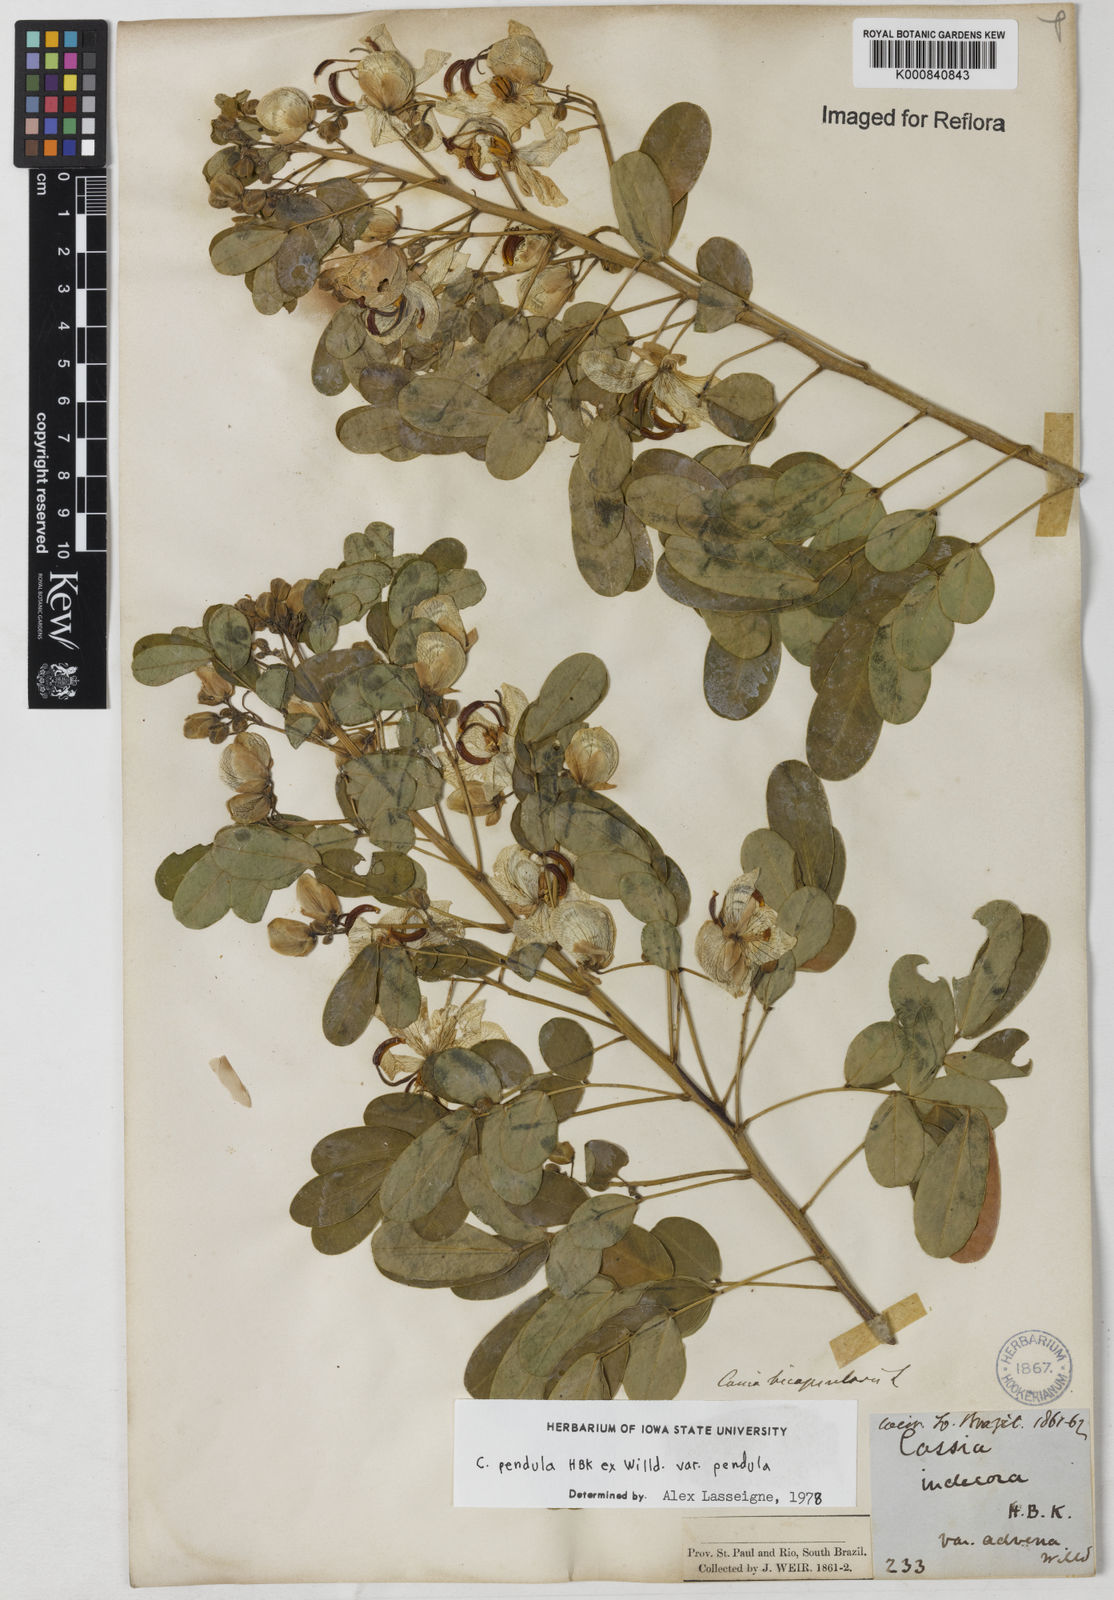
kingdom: Plantae
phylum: Tracheophyta
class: Magnoliopsida
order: Fabales
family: Fabaceae
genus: Senna
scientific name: Senna pendula
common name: Easter cassia
